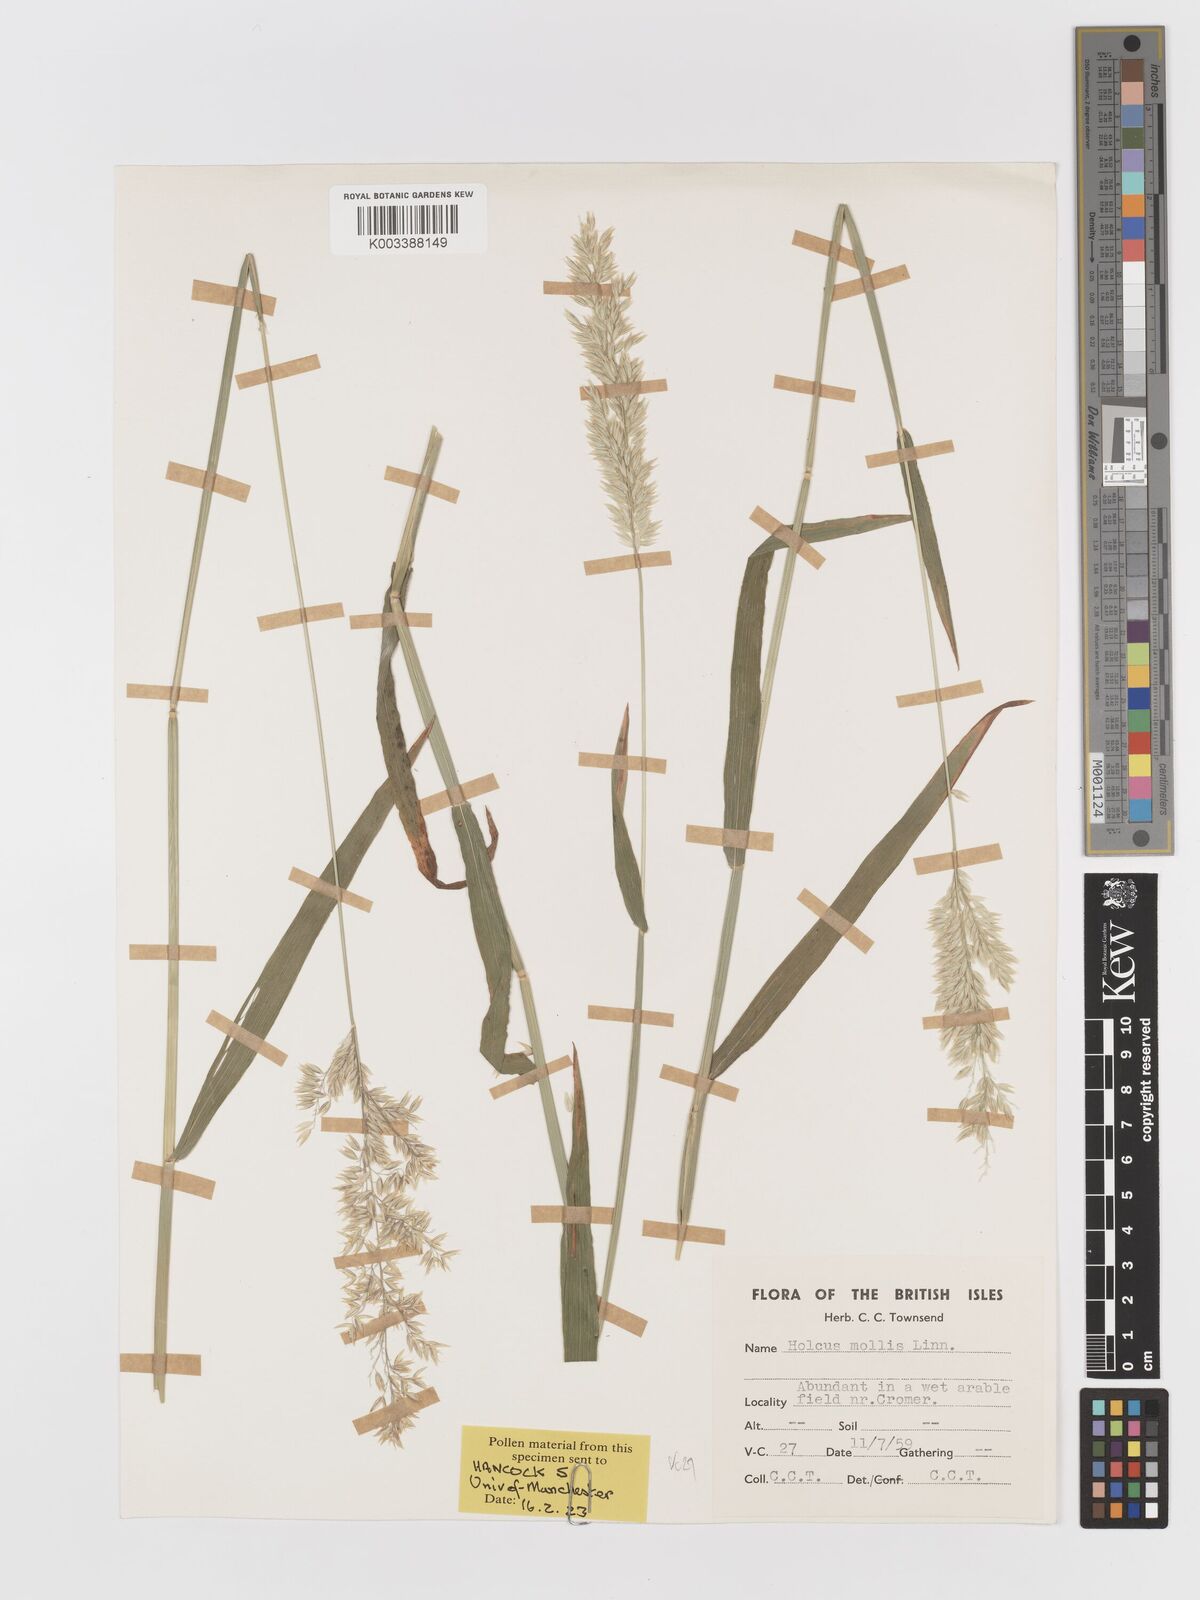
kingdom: Plantae
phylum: Tracheophyta
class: Liliopsida
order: Poales
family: Poaceae
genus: Holcus
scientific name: Holcus mollis
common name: Creeping velvetgrass
